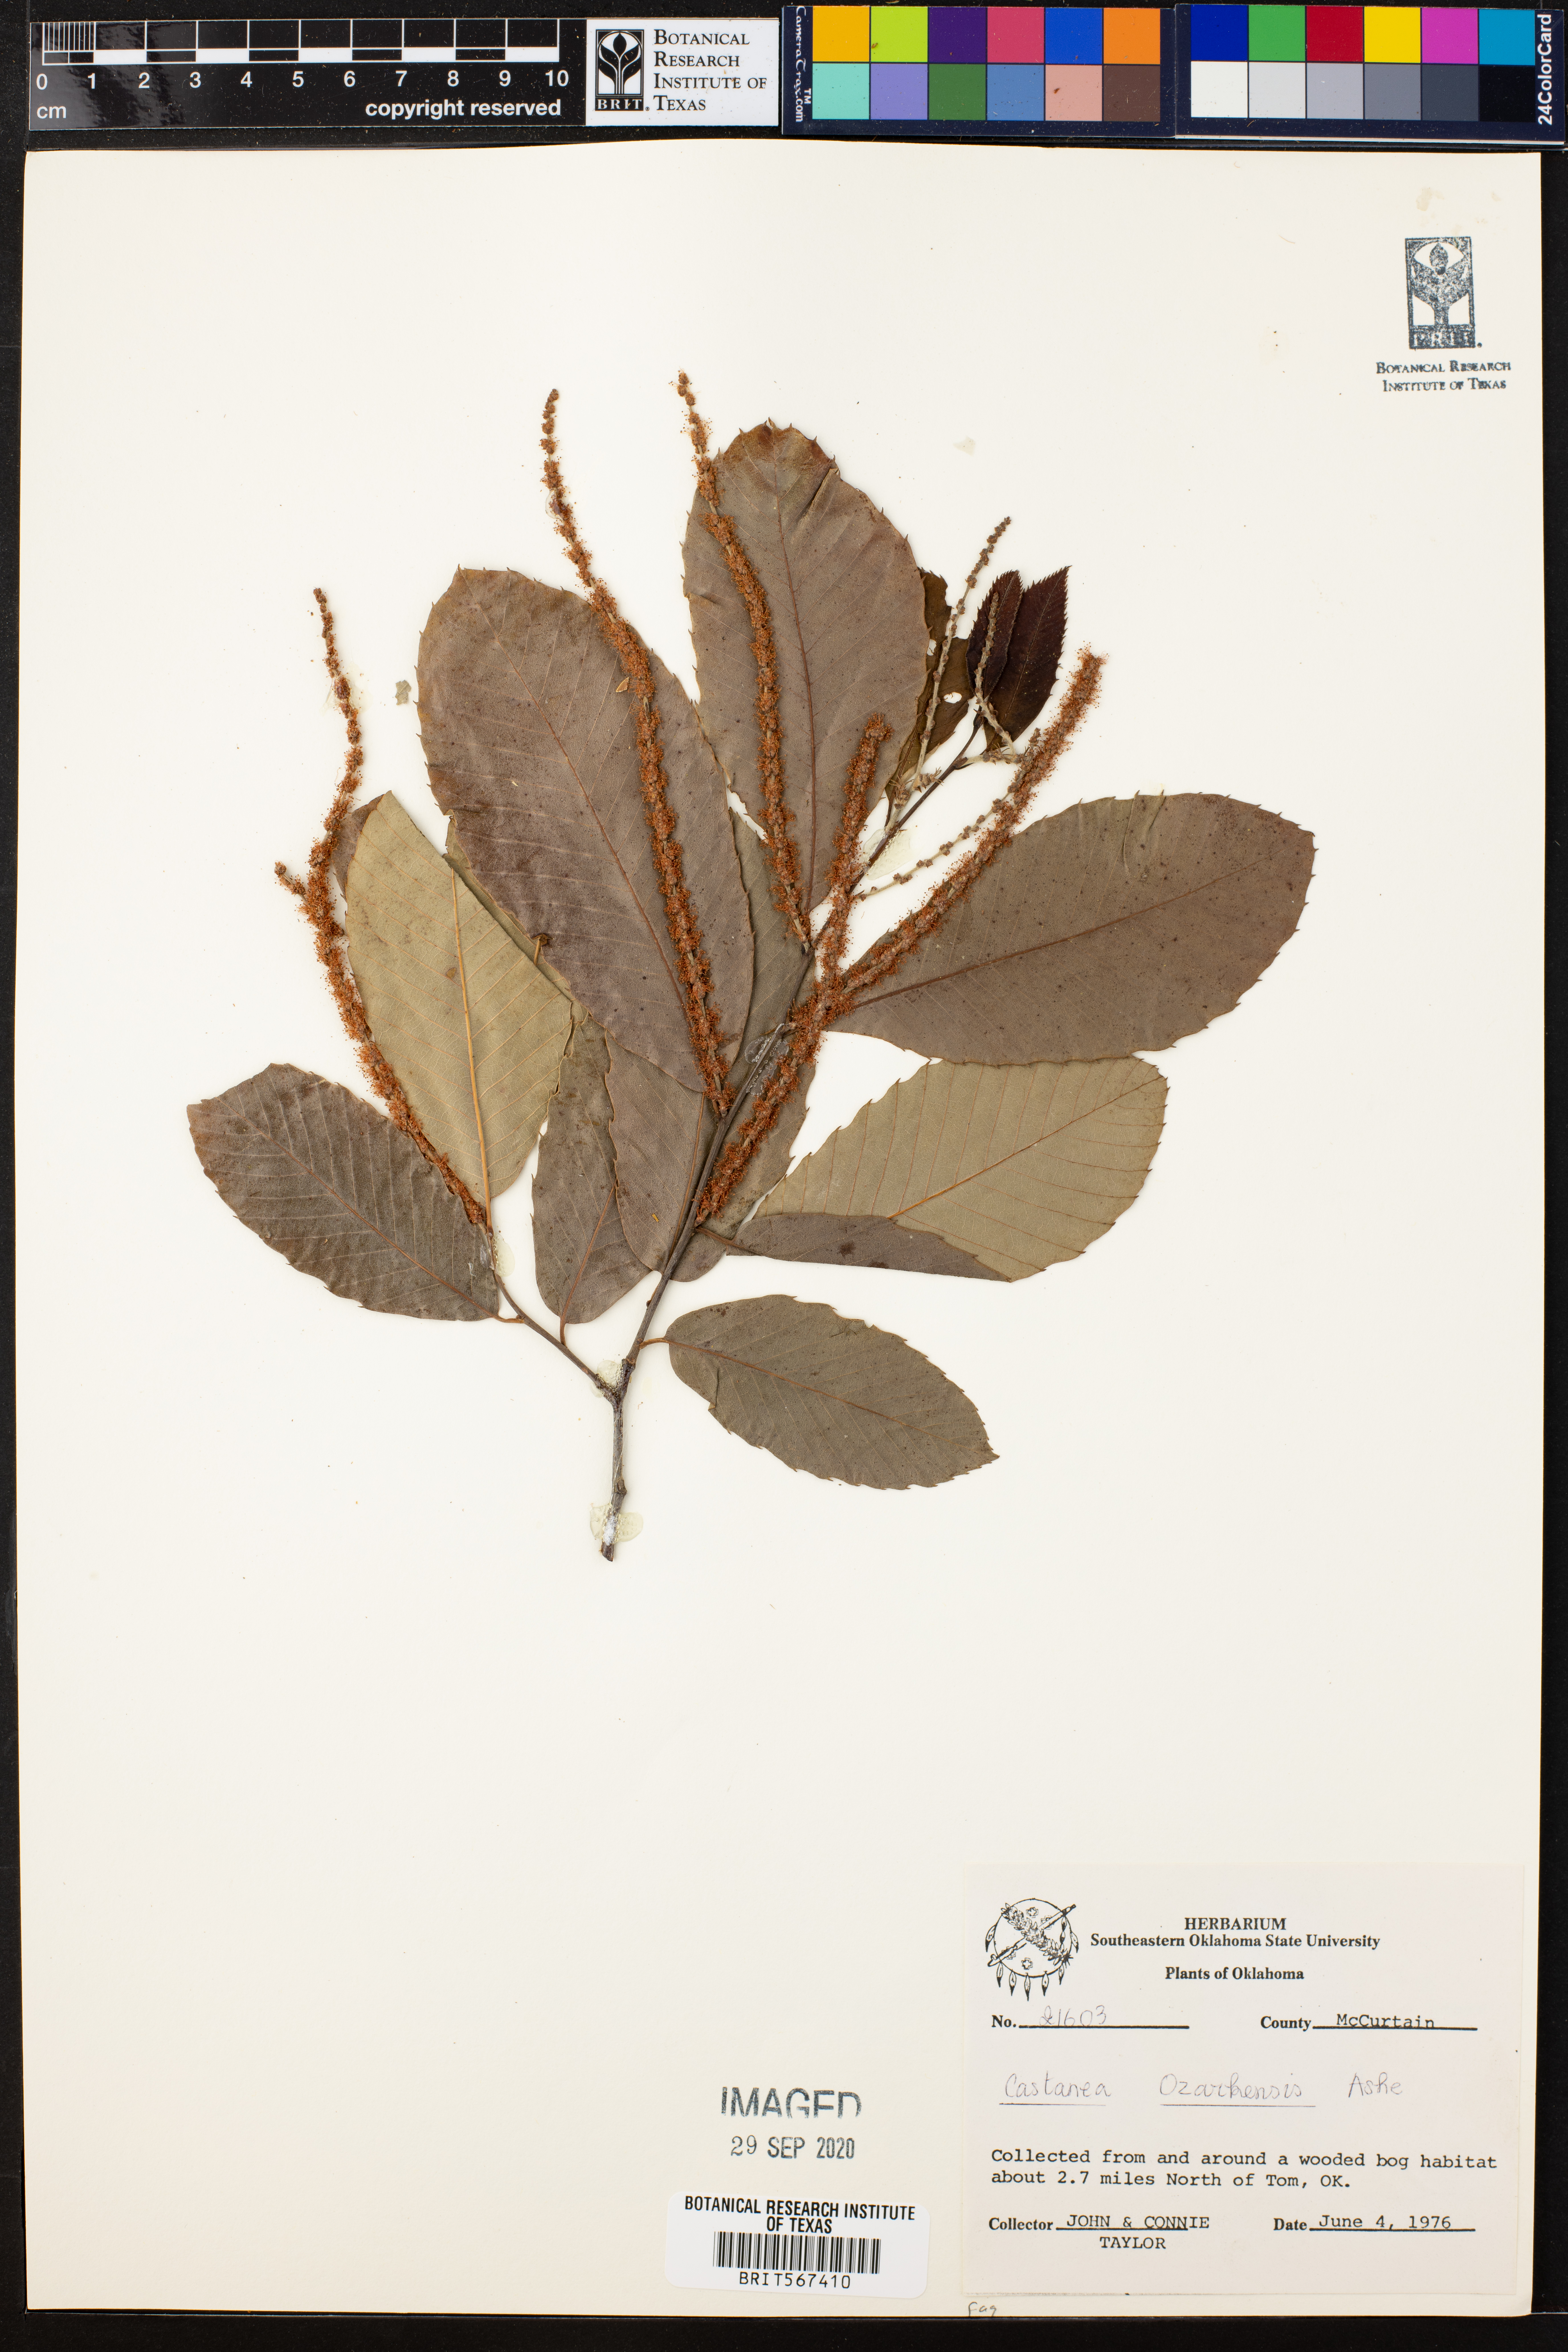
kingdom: Plantae
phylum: Tracheophyta
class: Magnoliopsida
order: Fagales
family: Fagaceae
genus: Castanea
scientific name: Castanea ozarkensis
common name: Ozark chinkapin
